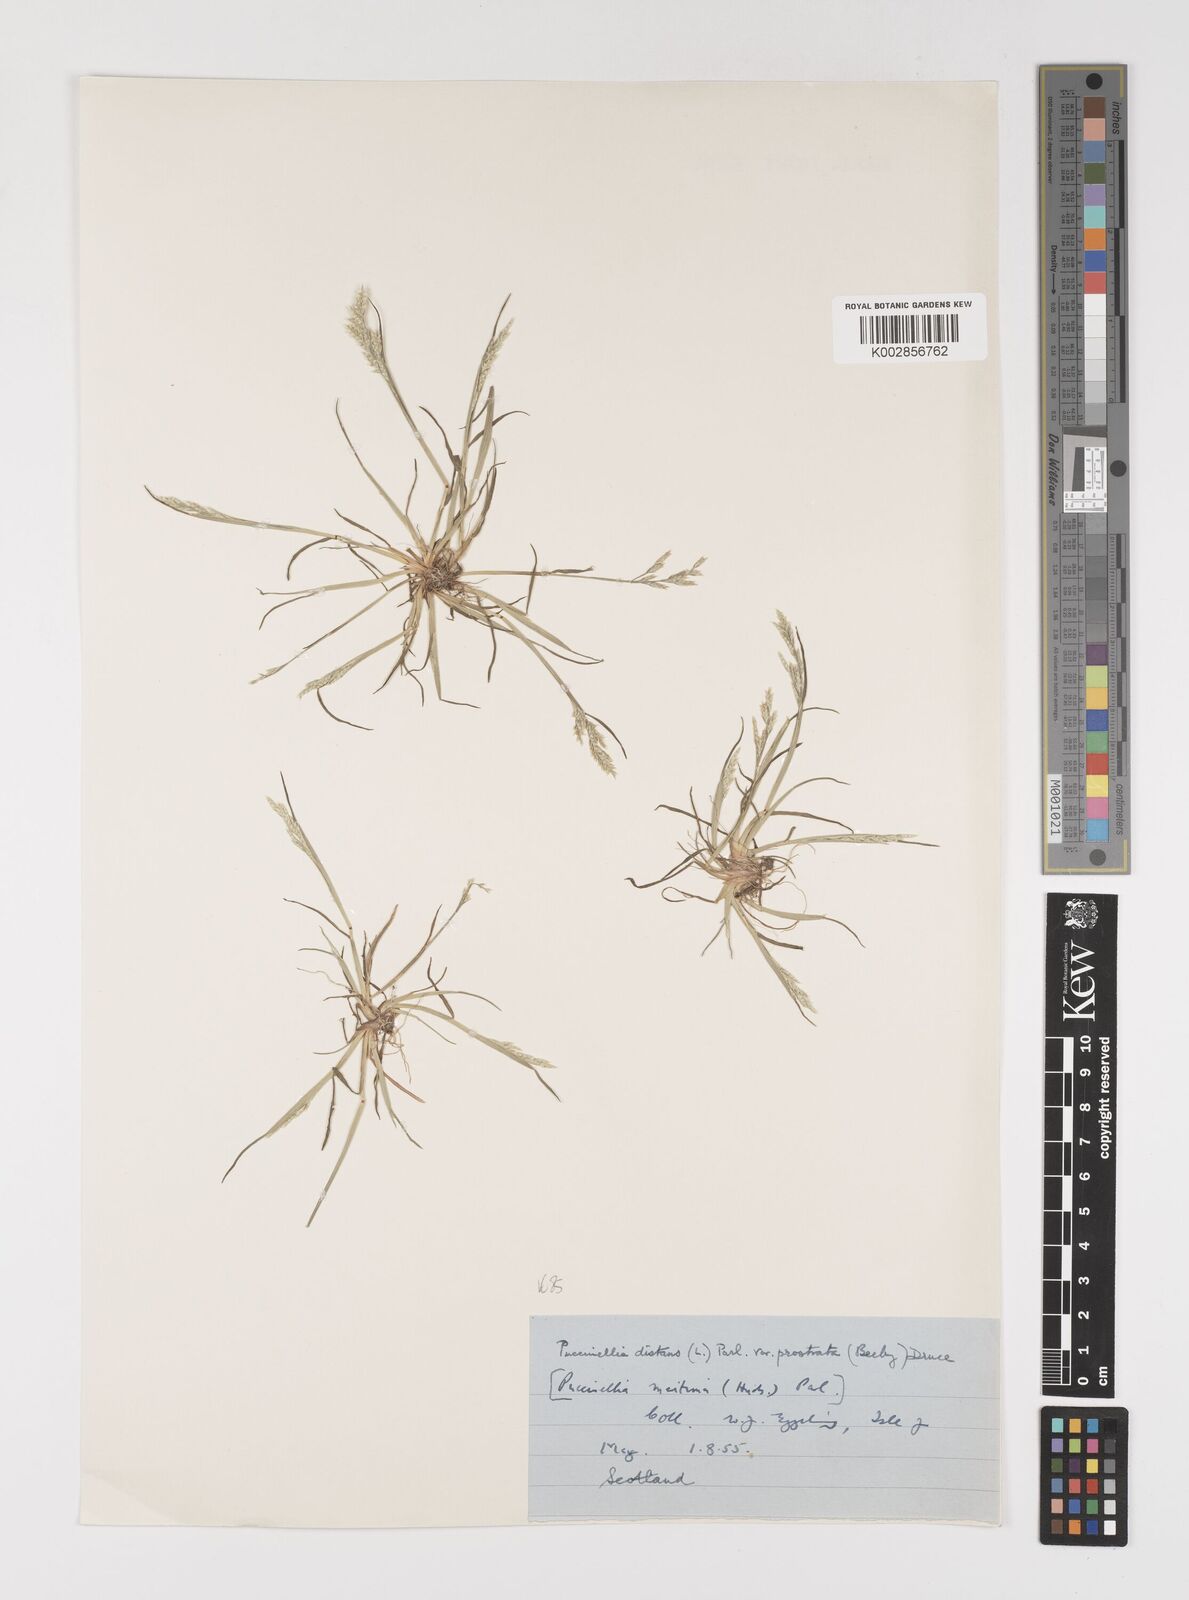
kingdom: Plantae
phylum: Tracheophyta
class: Liliopsida
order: Poales
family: Poaceae
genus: Puccinellia
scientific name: Puccinellia distans
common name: Weeping alkaligrass
